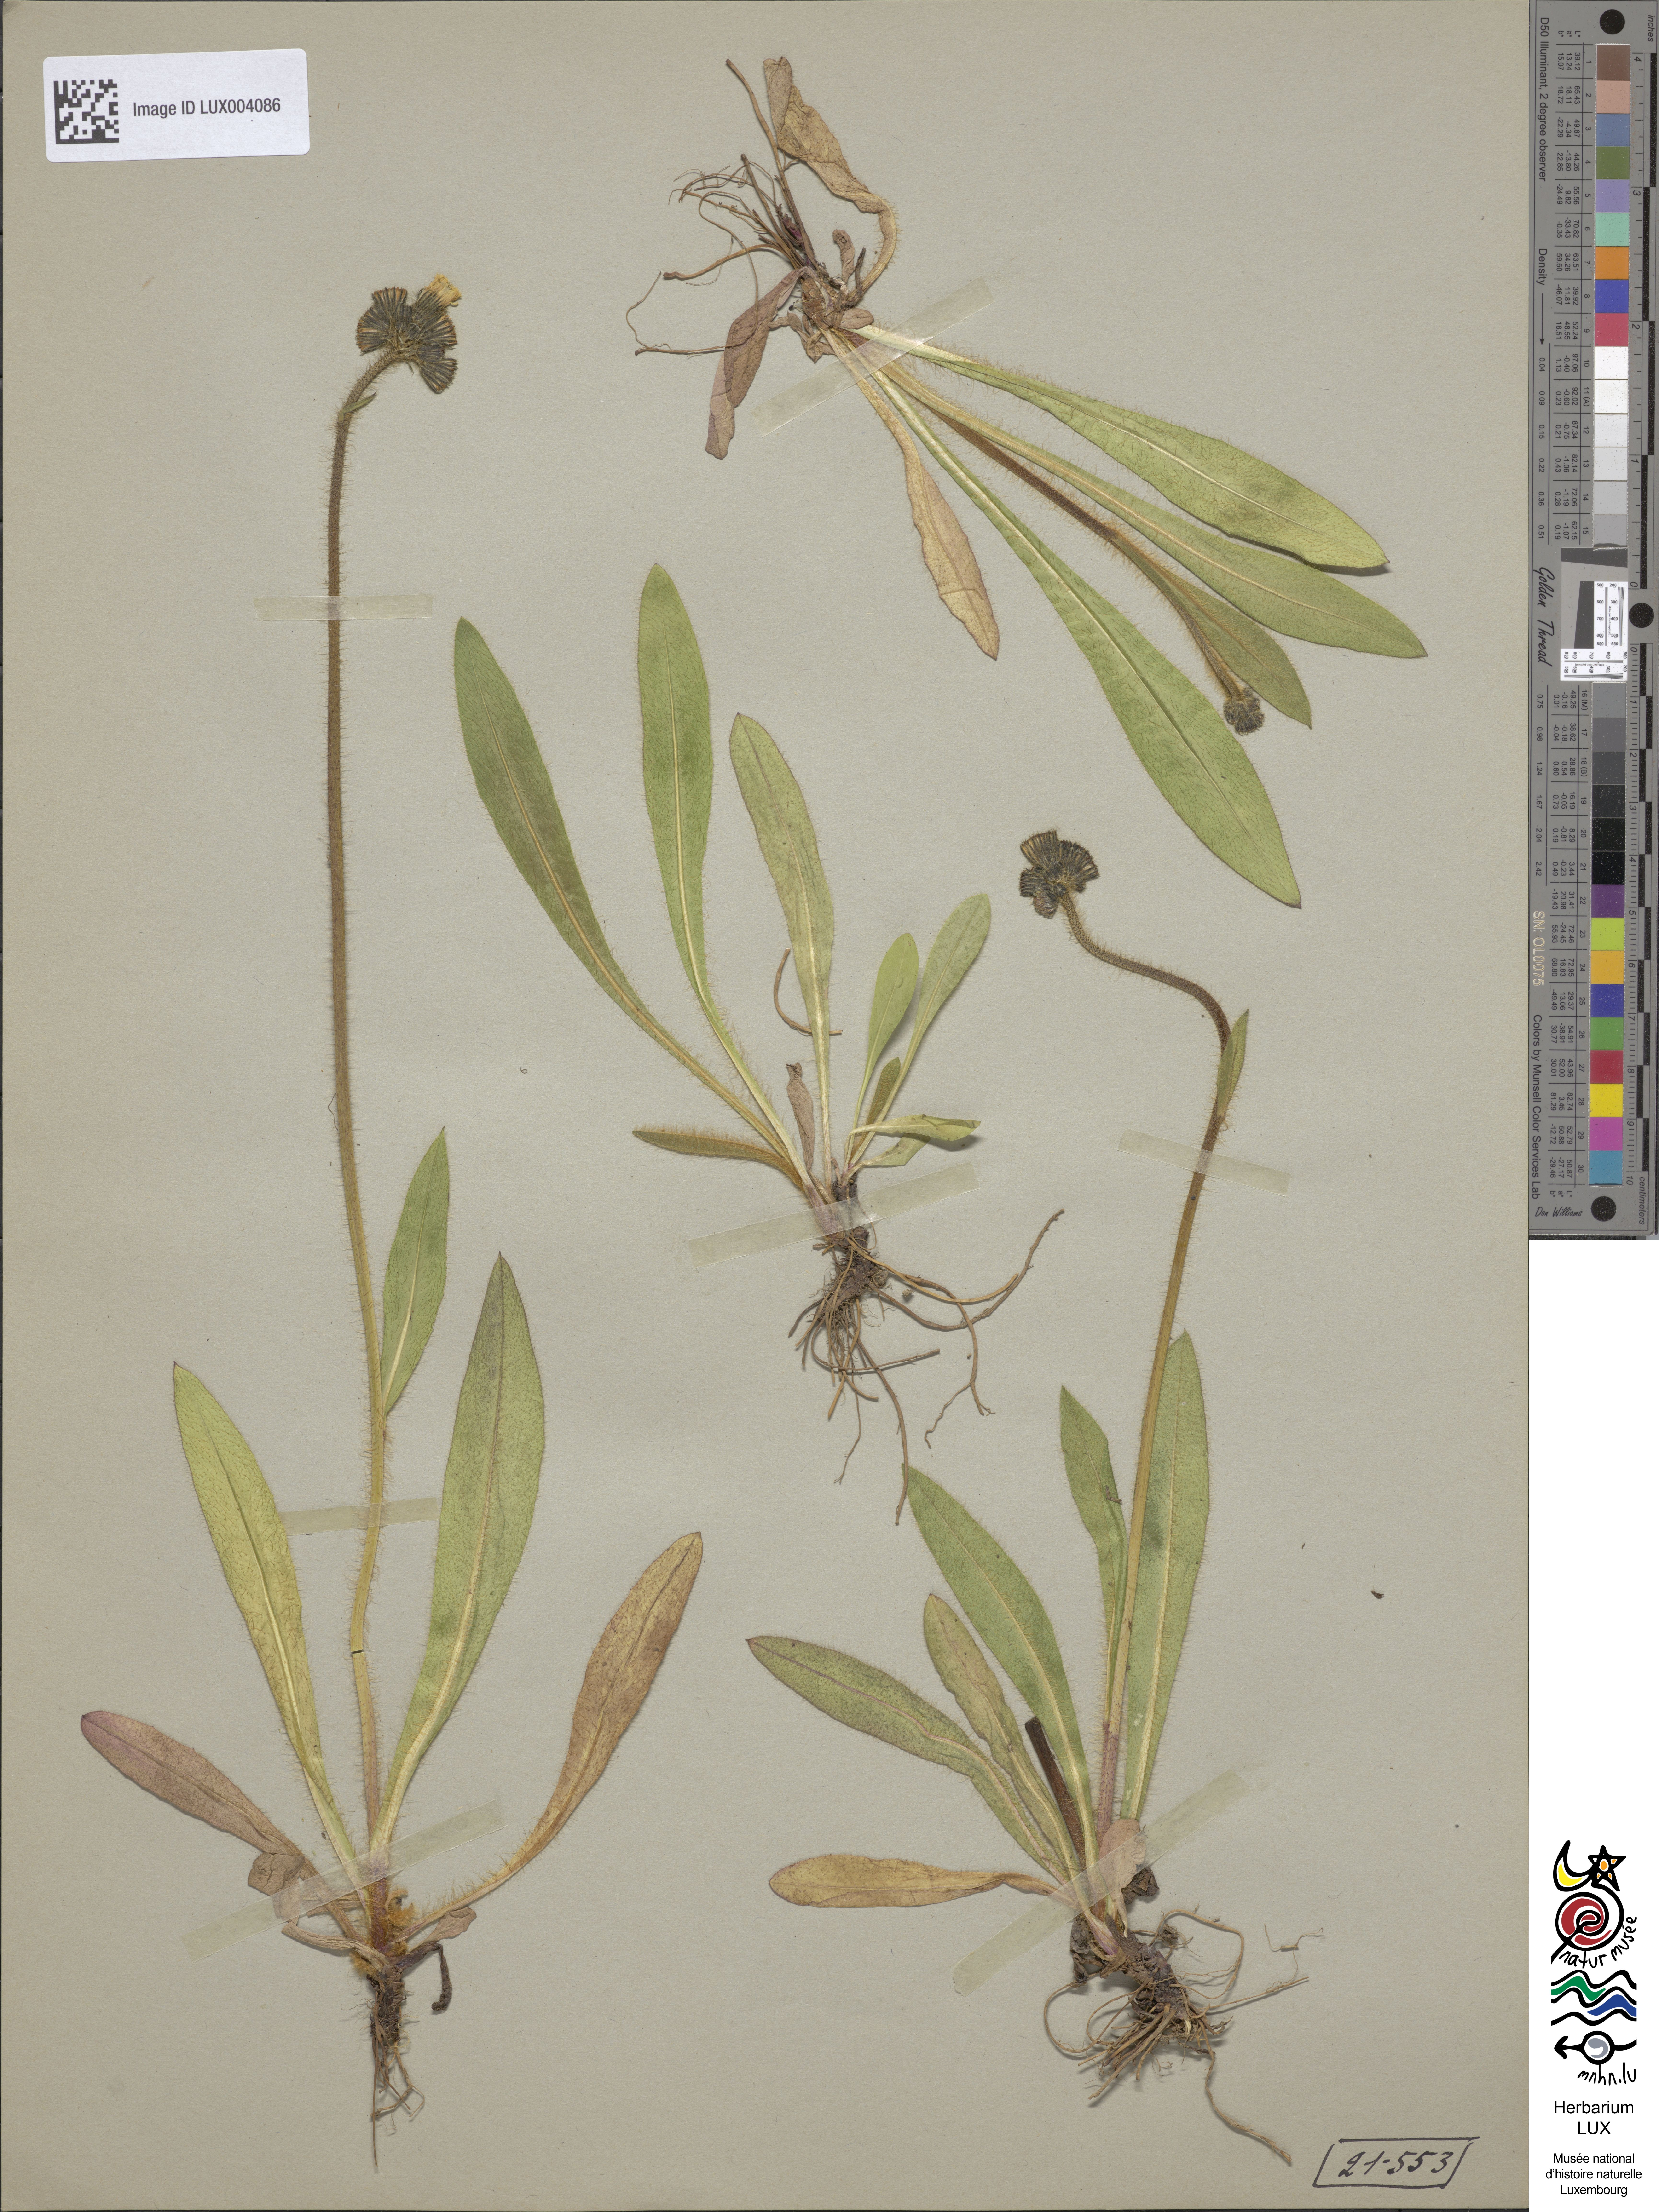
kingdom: Plantae
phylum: Tracheophyta
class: Magnoliopsida
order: Asterales
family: Asteraceae
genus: Pilosella
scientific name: Pilosella caespitosa
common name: Yellow fox-and-cubs
